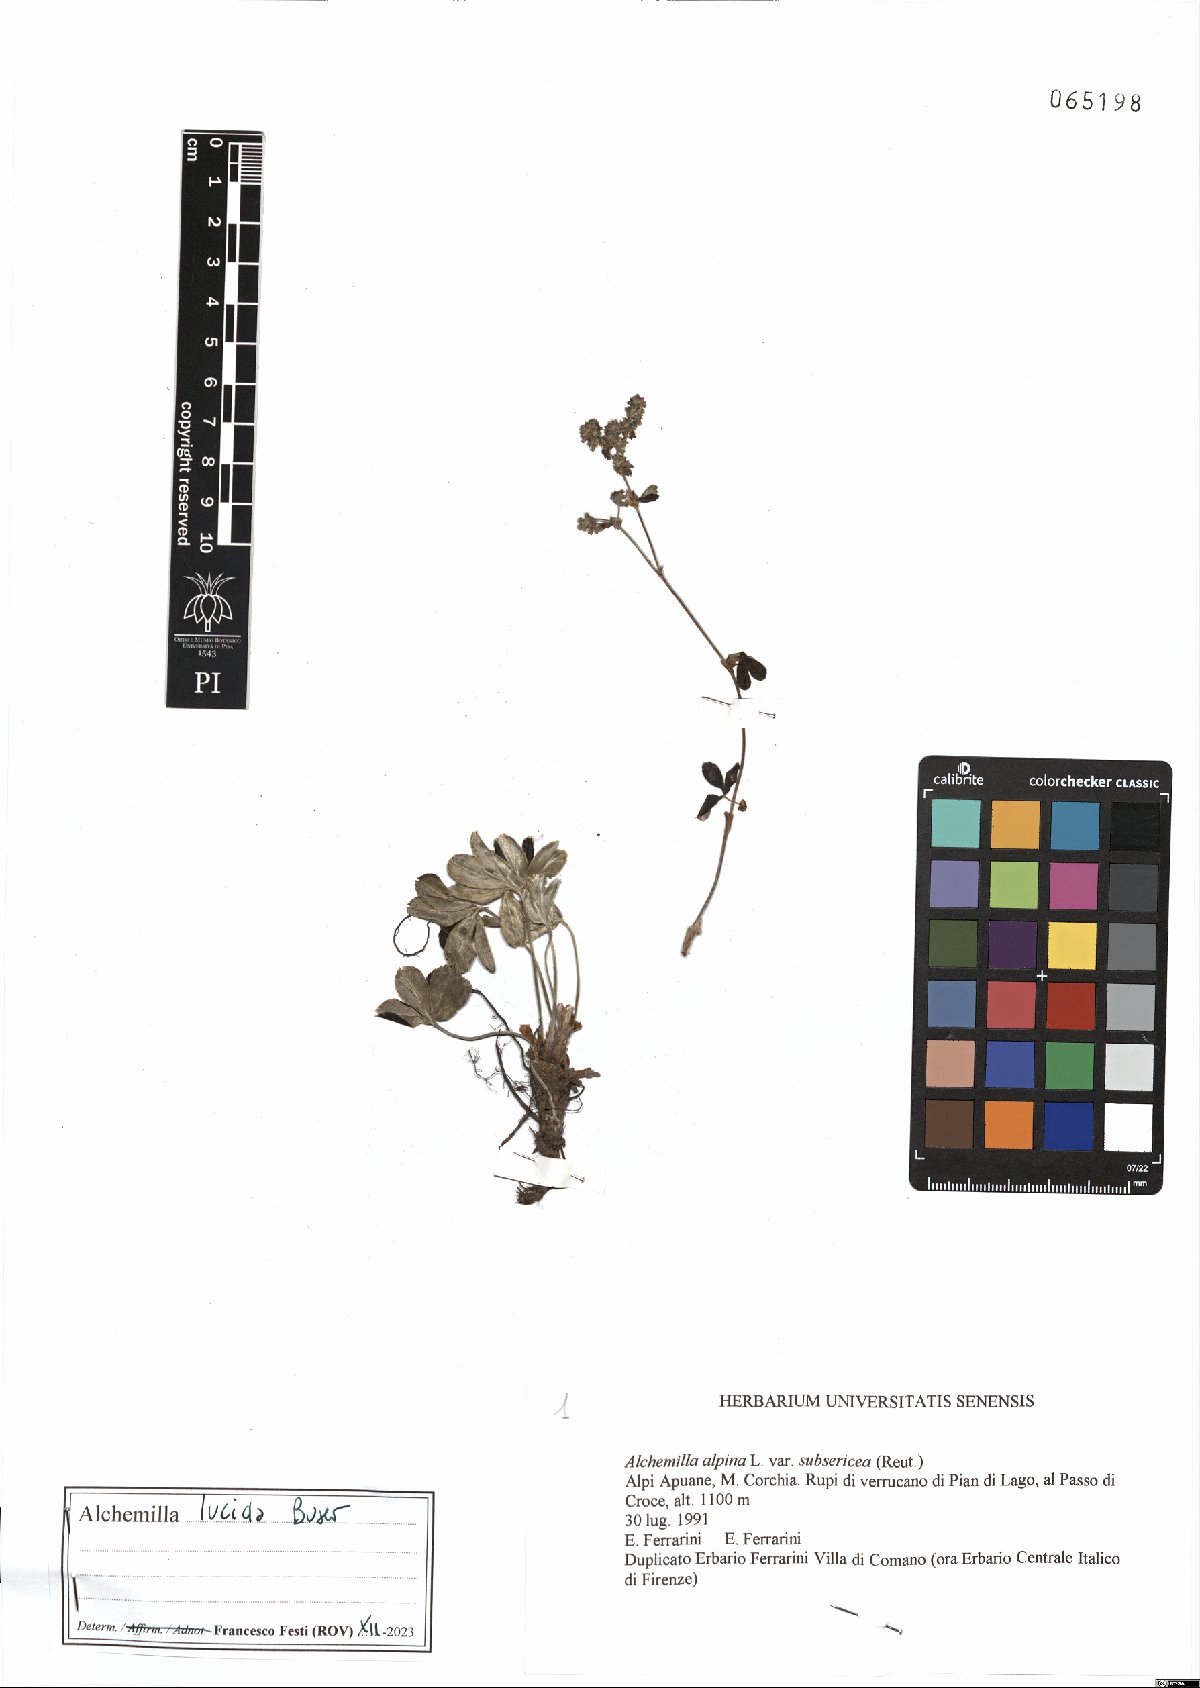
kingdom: Plantae
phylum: Tracheophyta
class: Magnoliopsida
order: Rosales
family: Rosaceae
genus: Alchemilla
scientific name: Alchemilla lucida
